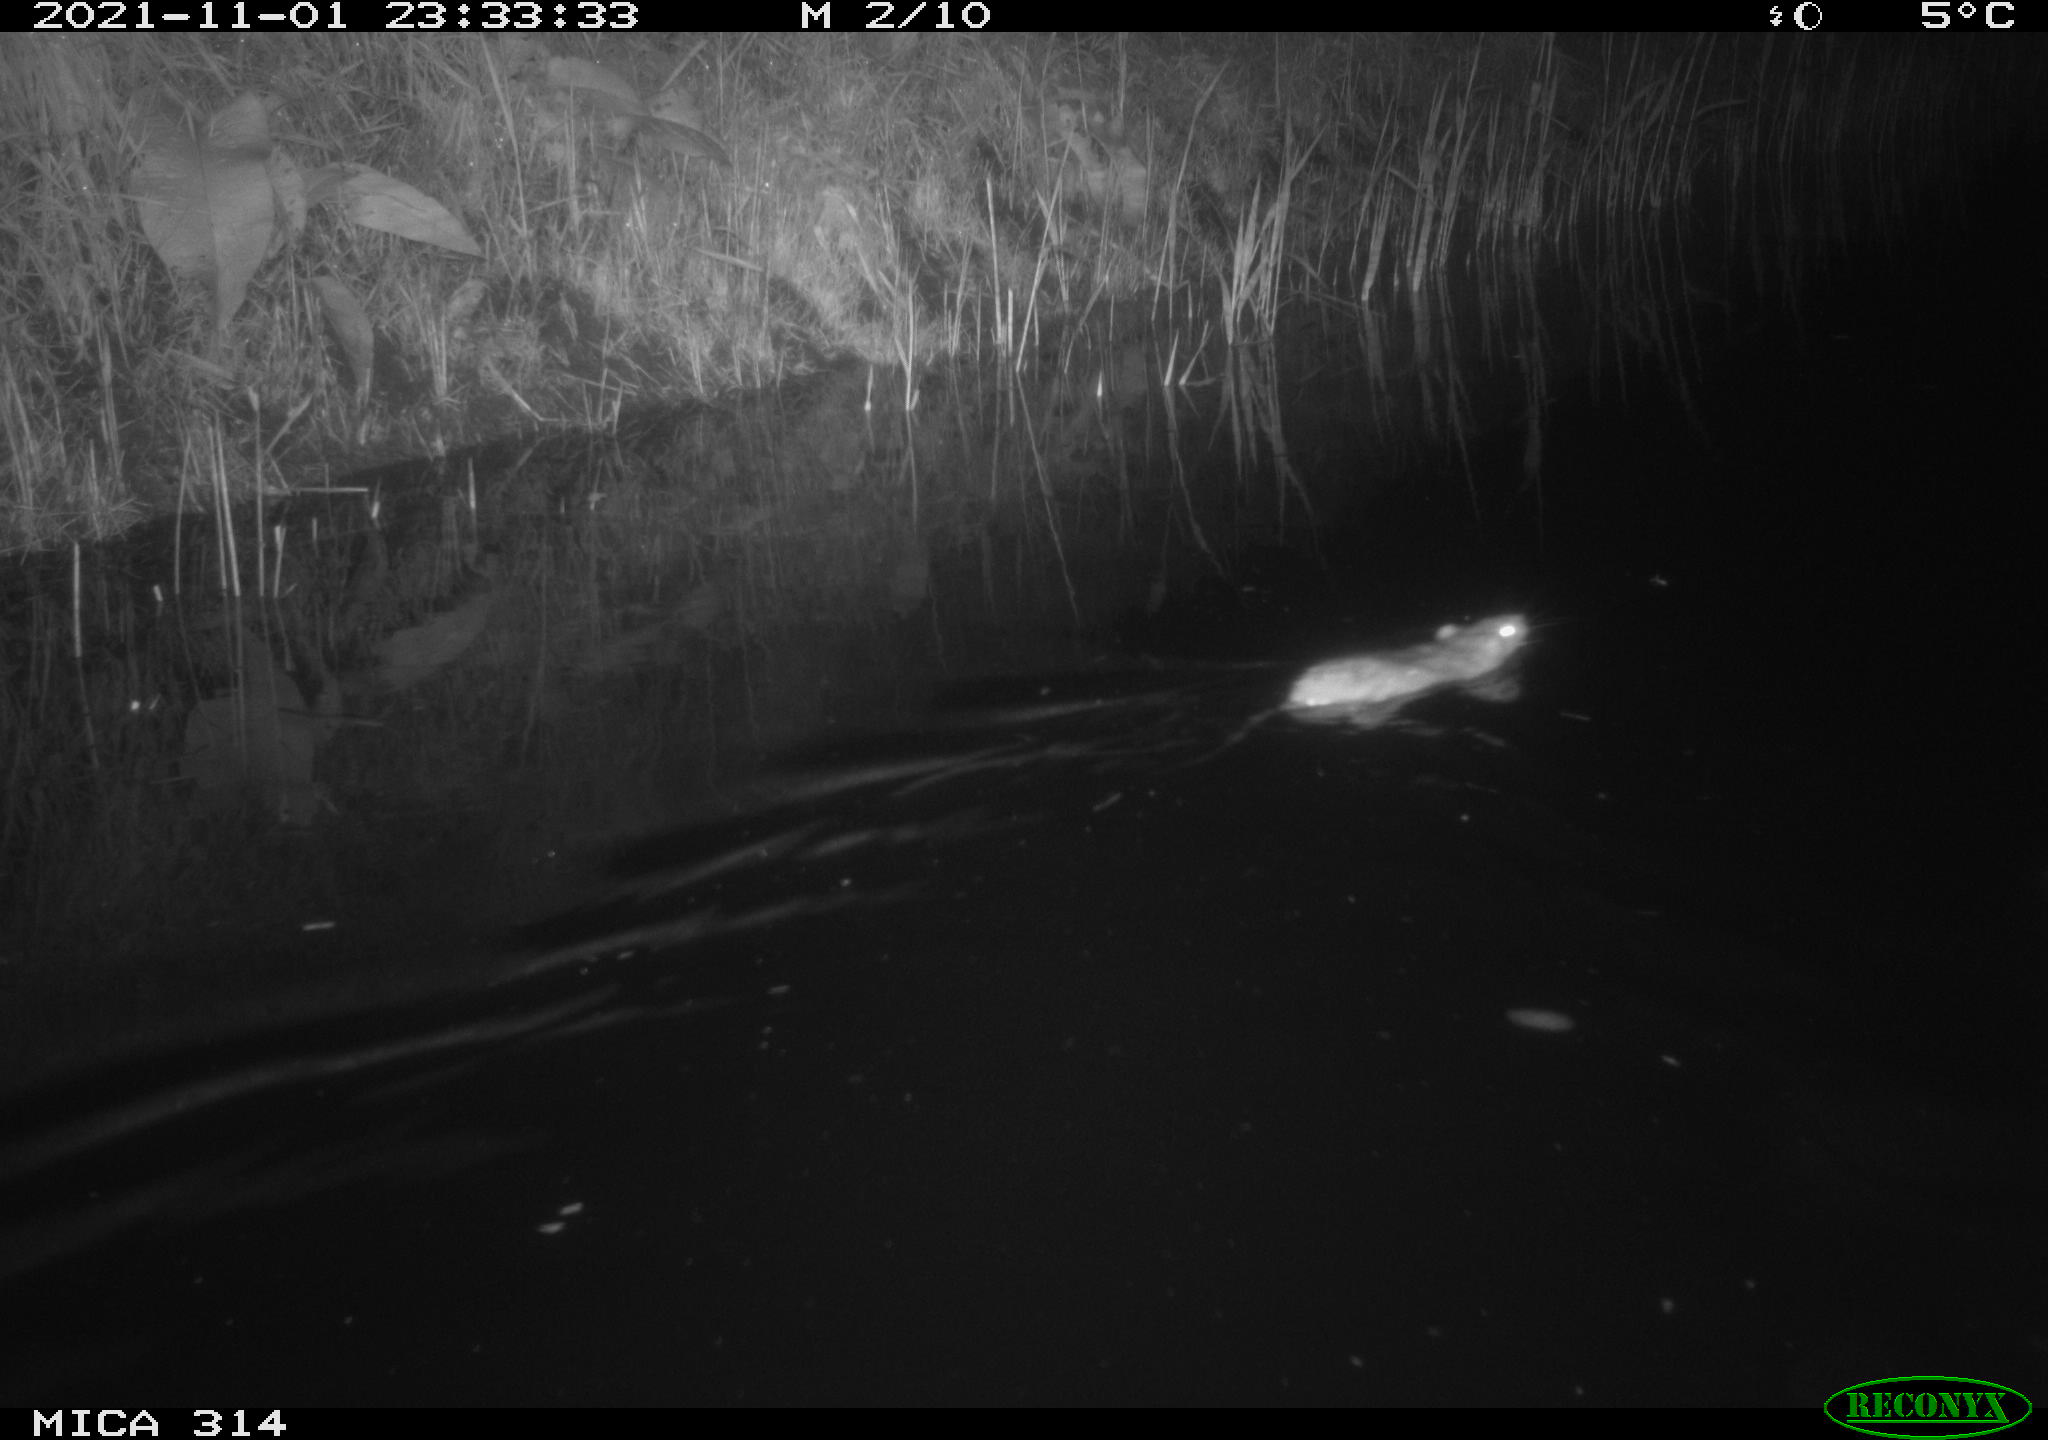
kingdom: Animalia
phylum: Chordata
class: Mammalia
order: Rodentia
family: Muridae
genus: Rattus
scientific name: Rattus norvegicus
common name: Brown rat
